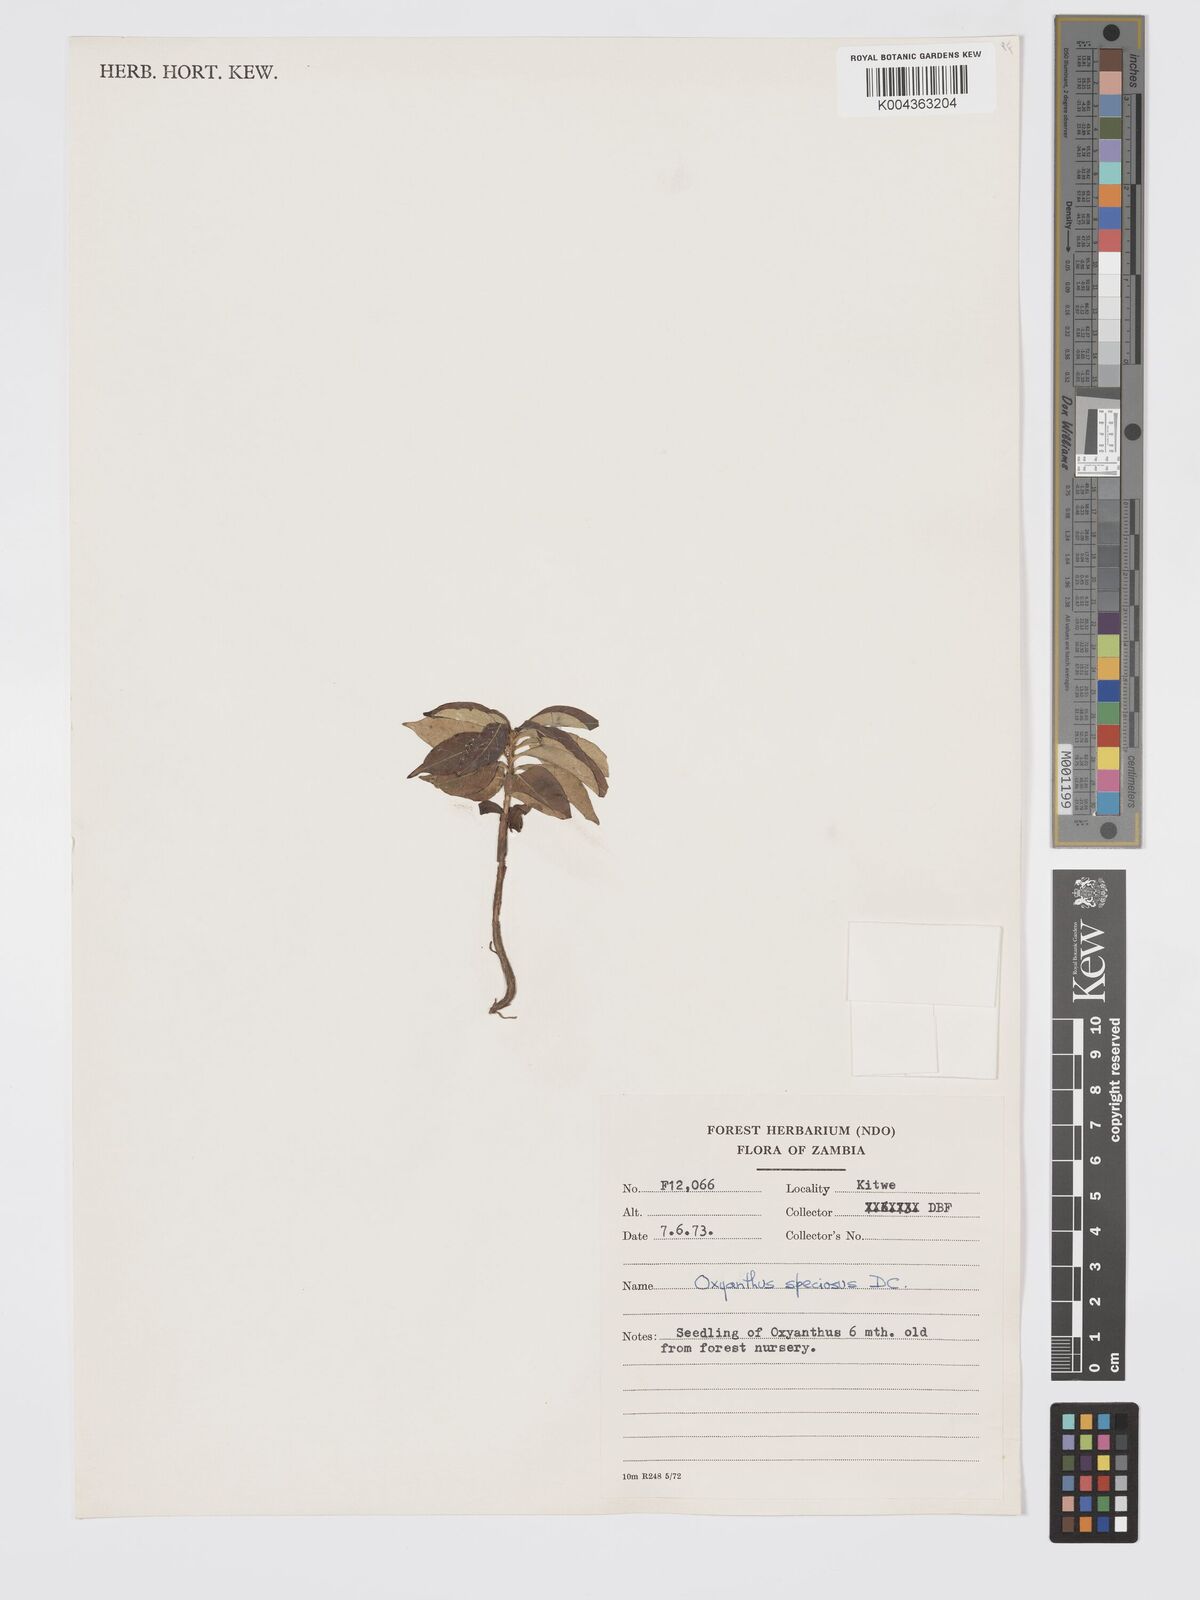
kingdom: Plantae
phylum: Tracheophyta
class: Magnoliopsida
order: Gentianales
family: Rubiaceae
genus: Oxyanthus
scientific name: Oxyanthus speciosus
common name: Whipstick loquat
